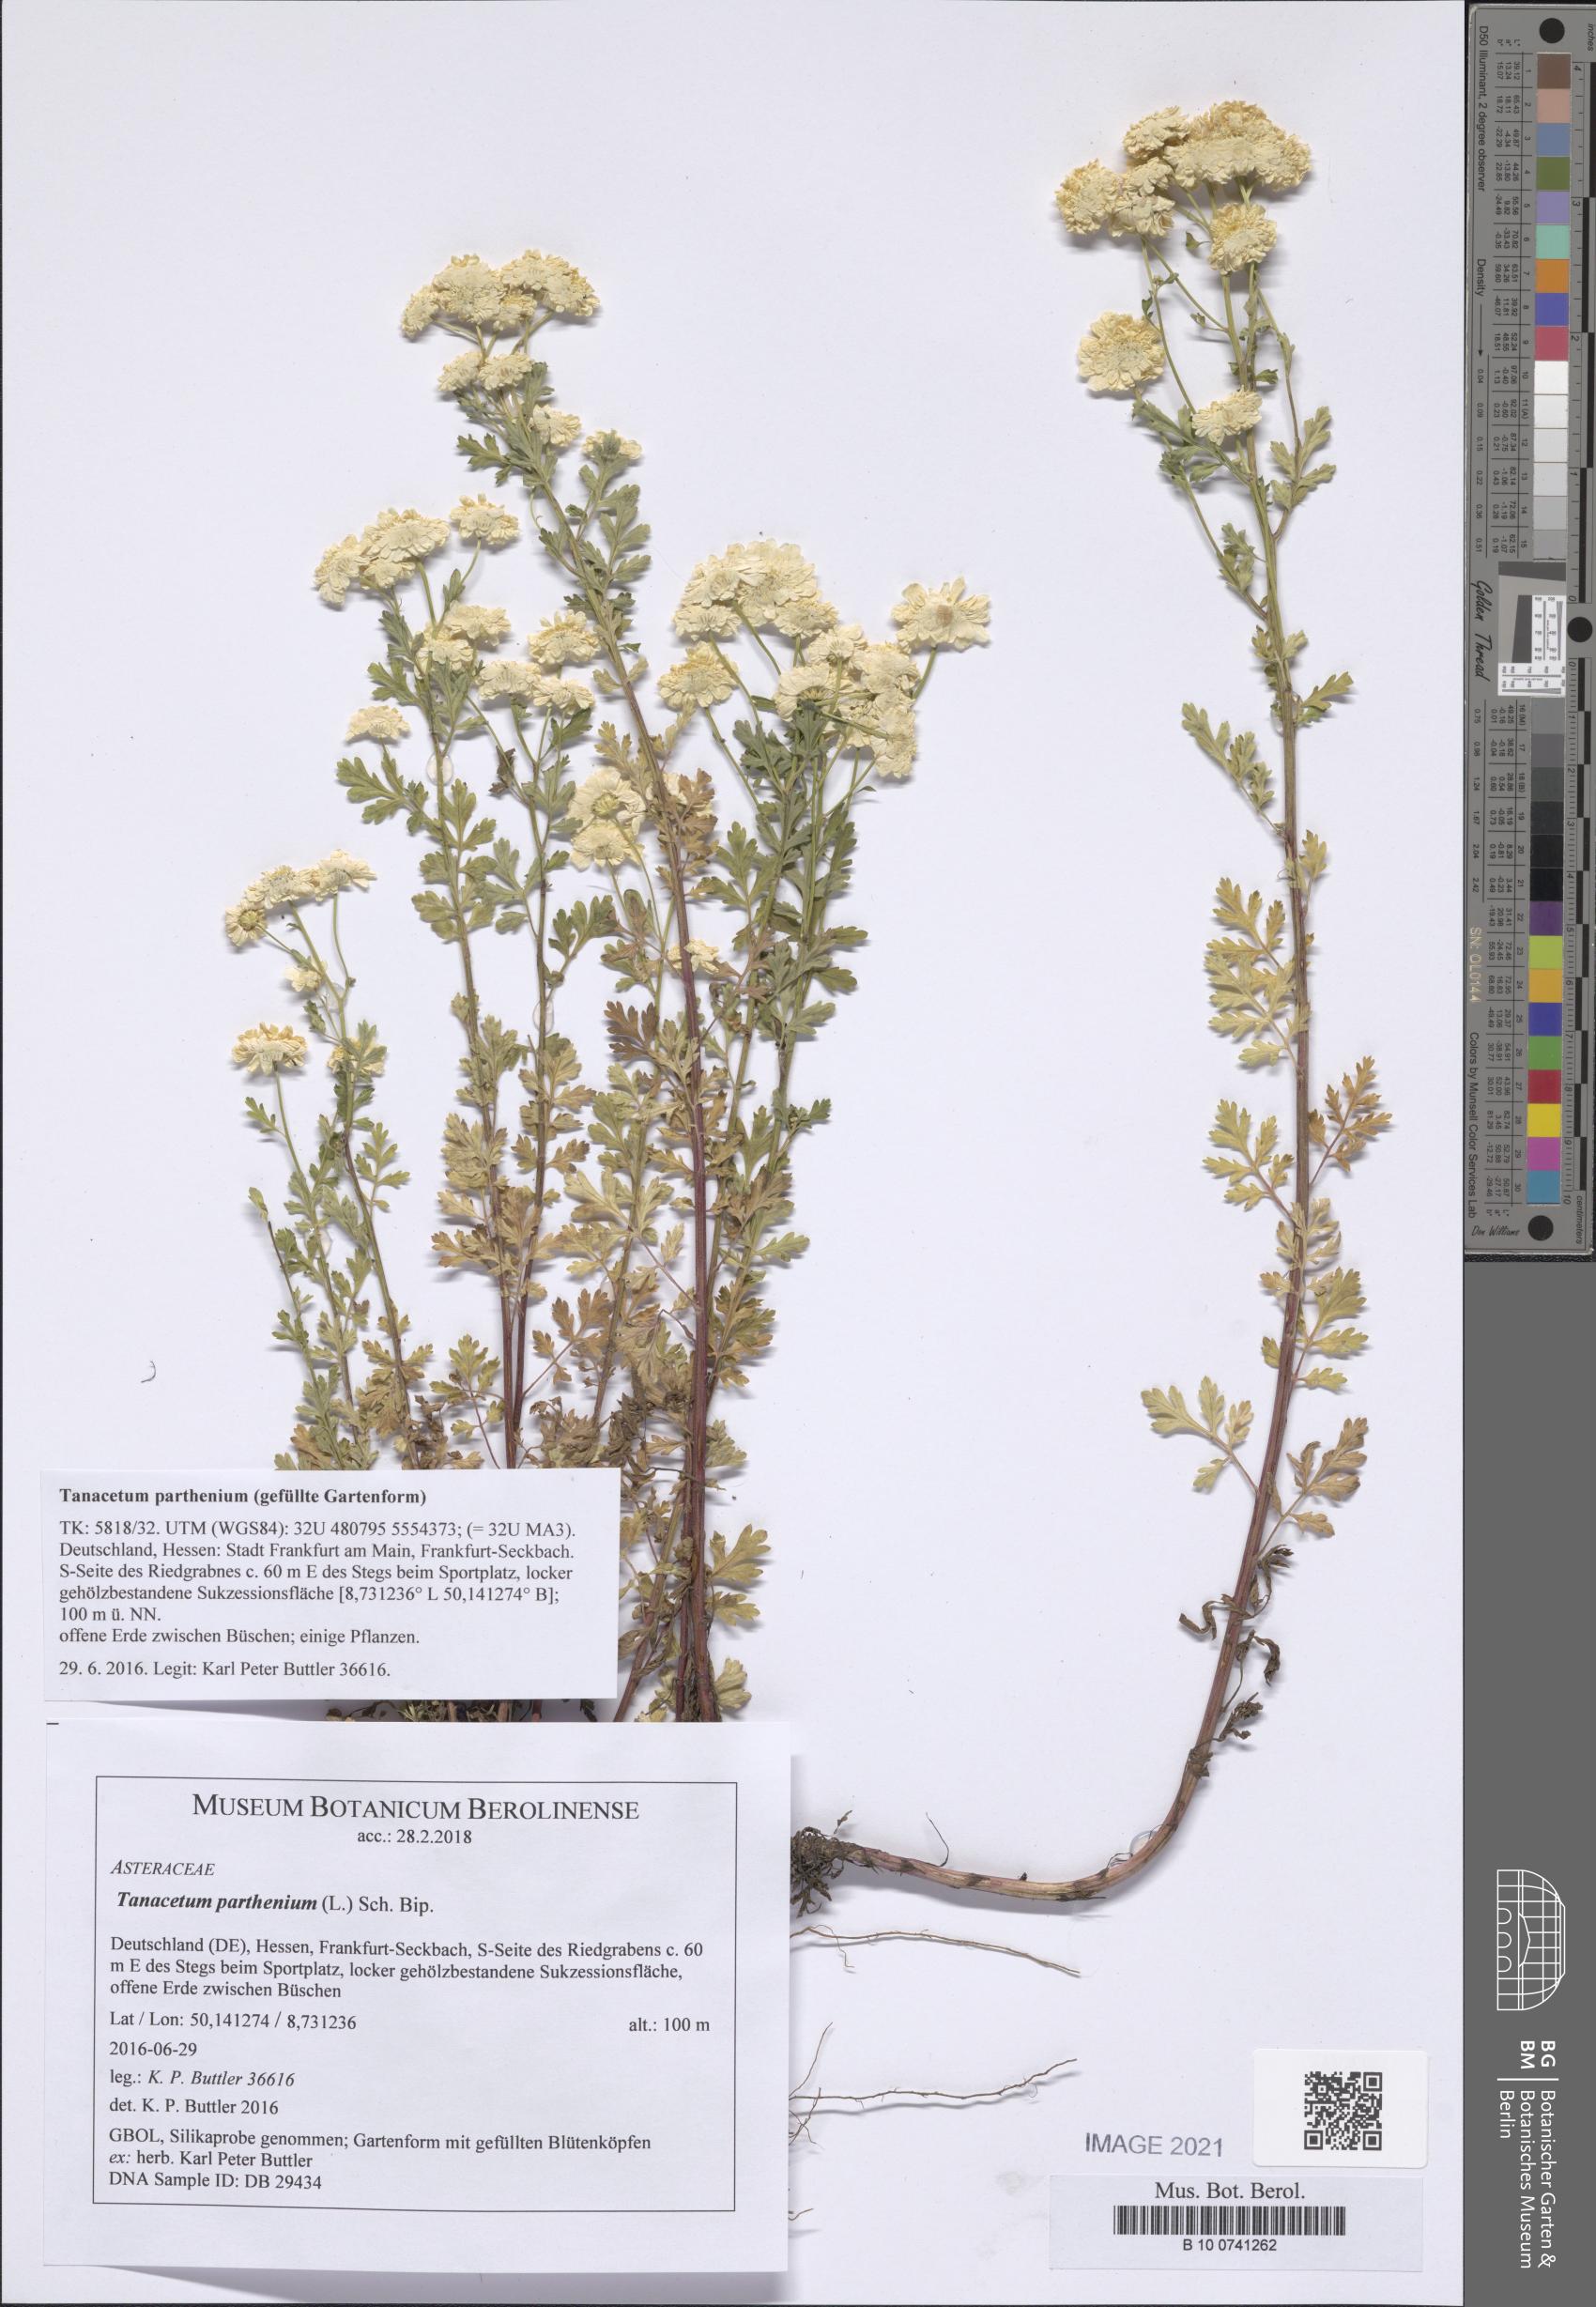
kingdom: Plantae
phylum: Tracheophyta
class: Magnoliopsida
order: Asterales
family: Asteraceae
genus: Tanacetum
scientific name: Tanacetum parthenium
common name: Feverfew
